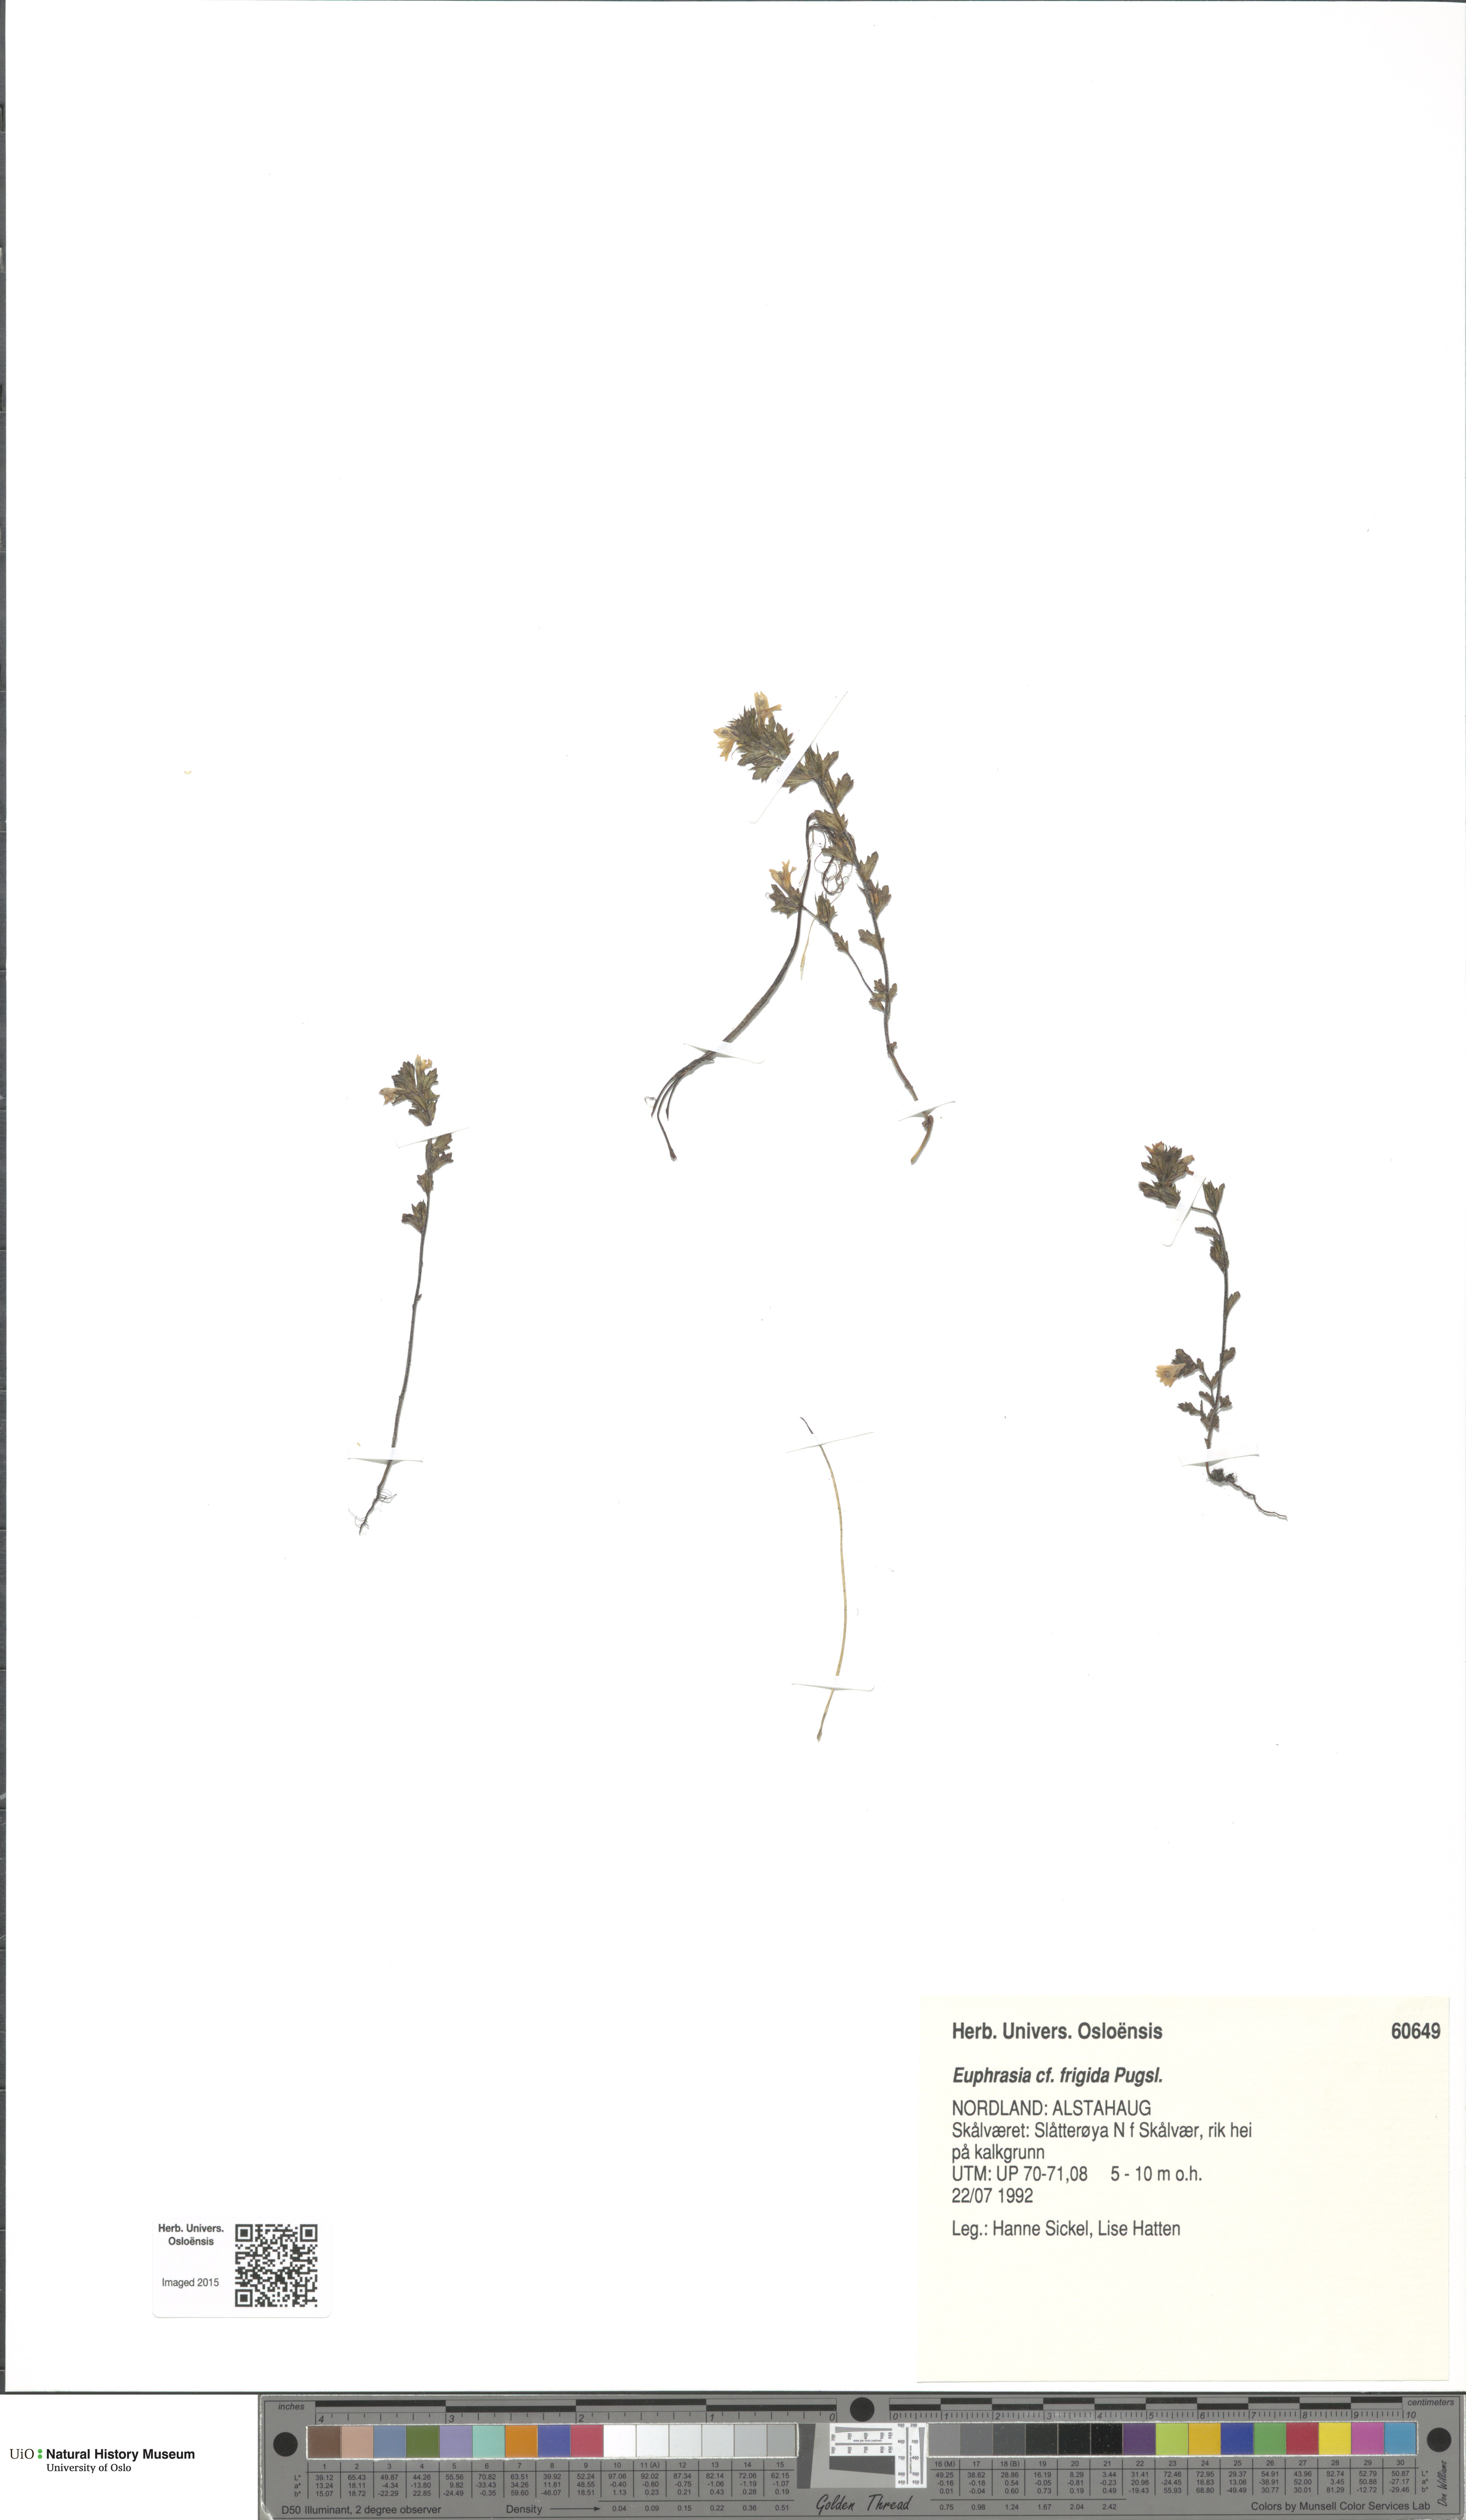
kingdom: Plantae
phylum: Tracheophyta
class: Magnoliopsida
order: Lamiales
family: Orobanchaceae
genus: Euphrasia
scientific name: Euphrasia frigida
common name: An eyebright
